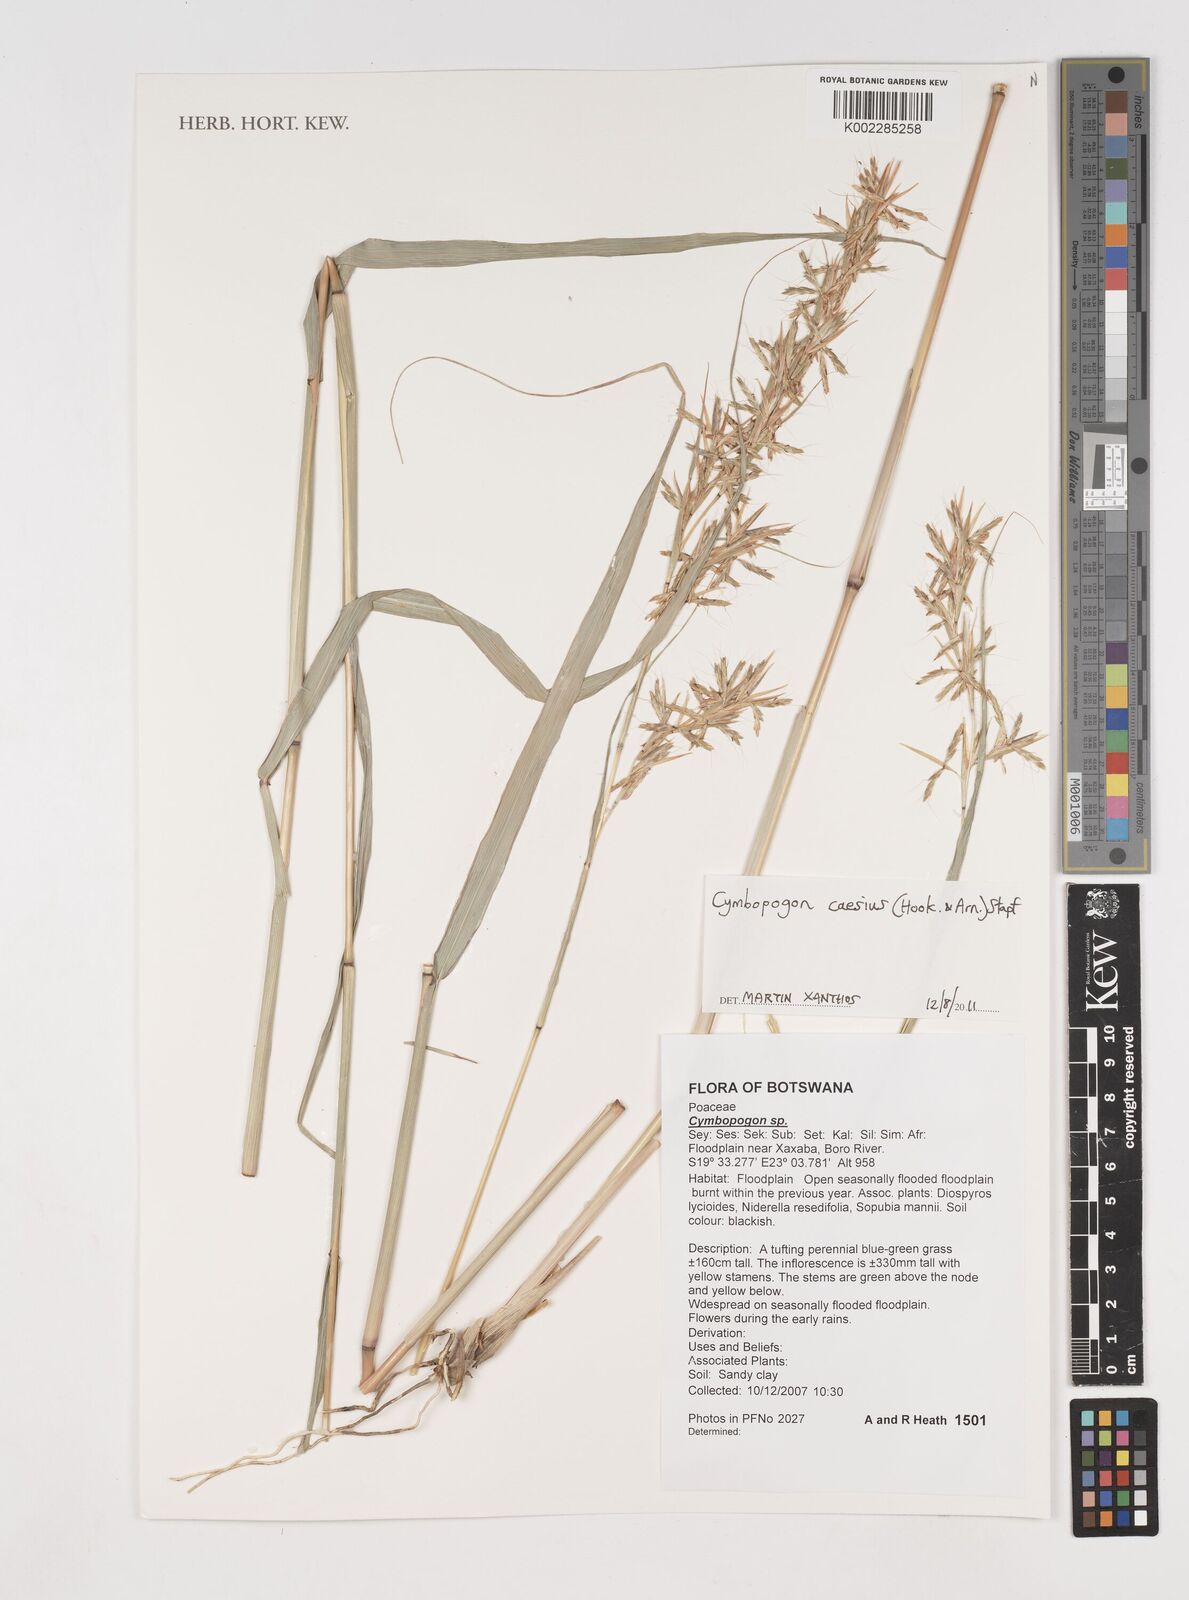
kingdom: Plantae
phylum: Tracheophyta
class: Liliopsida
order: Poales
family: Poaceae
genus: Cymbopogon
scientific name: Cymbopogon caesius
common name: Kachi grass
